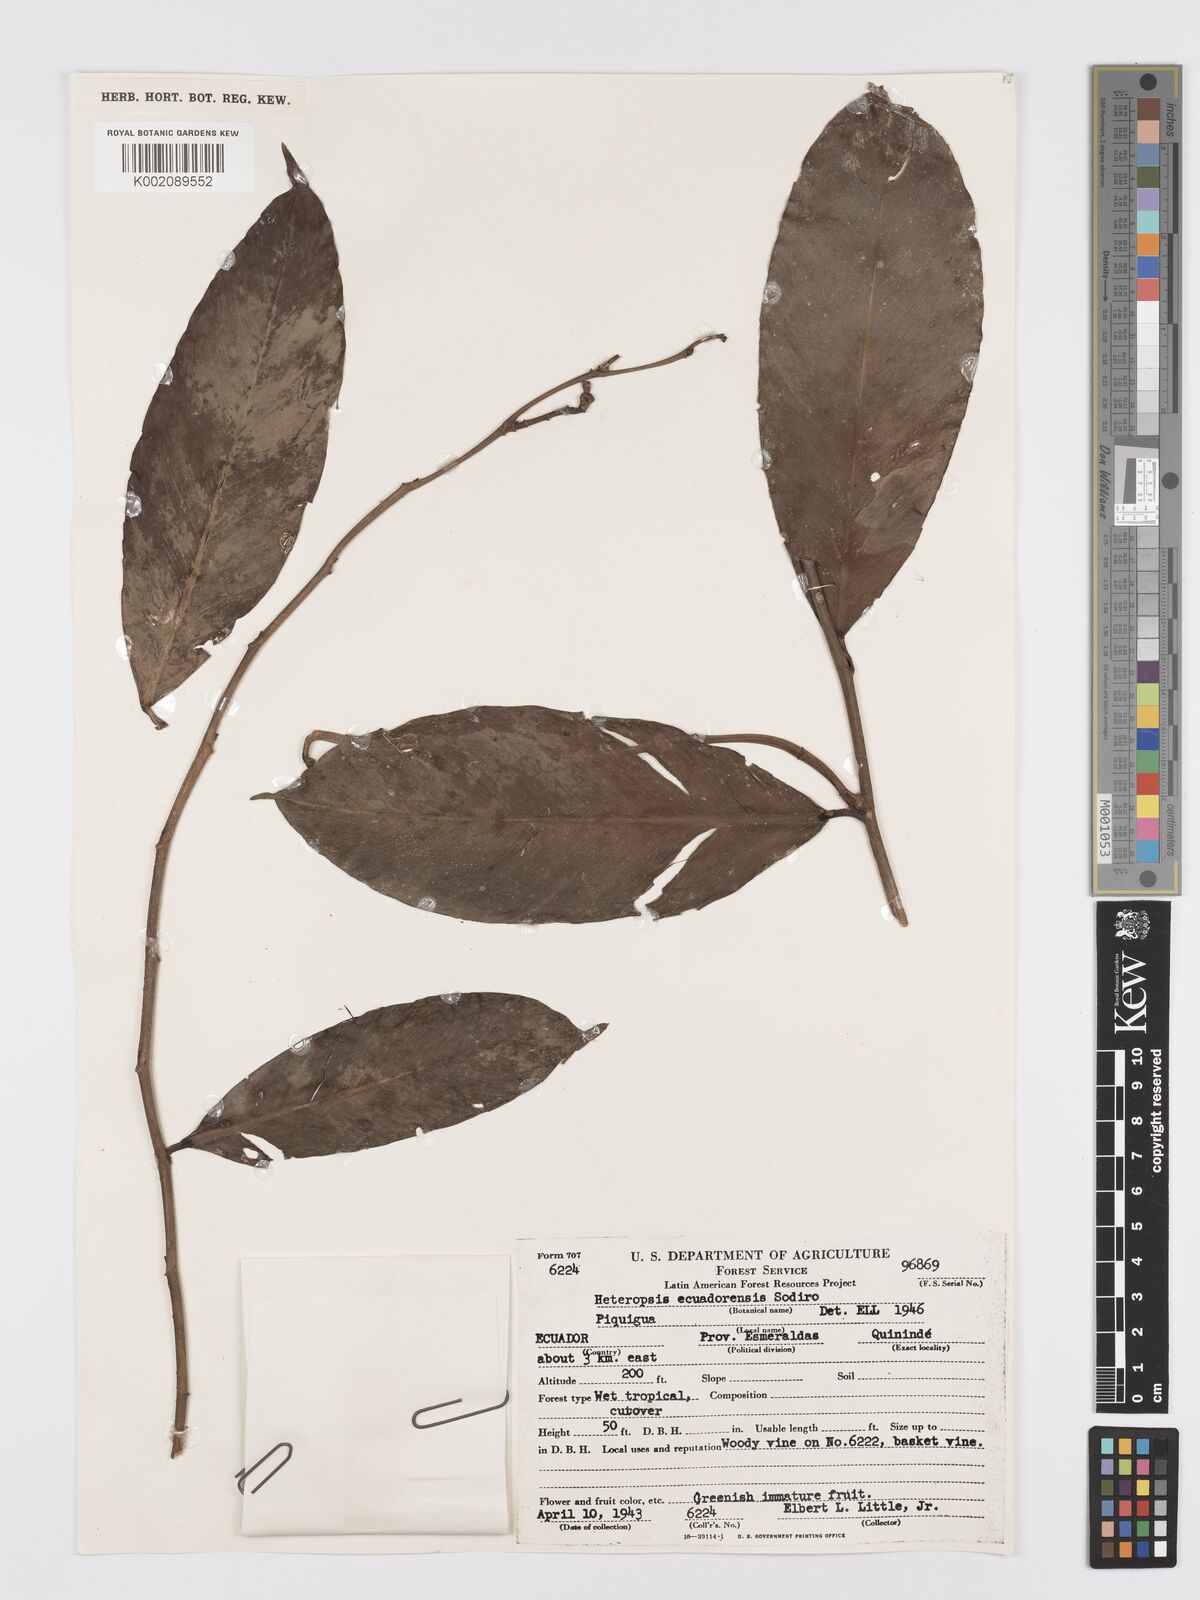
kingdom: Plantae
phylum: Tracheophyta
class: Liliopsida
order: Alismatales
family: Araceae
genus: Heteropsis
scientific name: Heteropsis ecuadorensis
